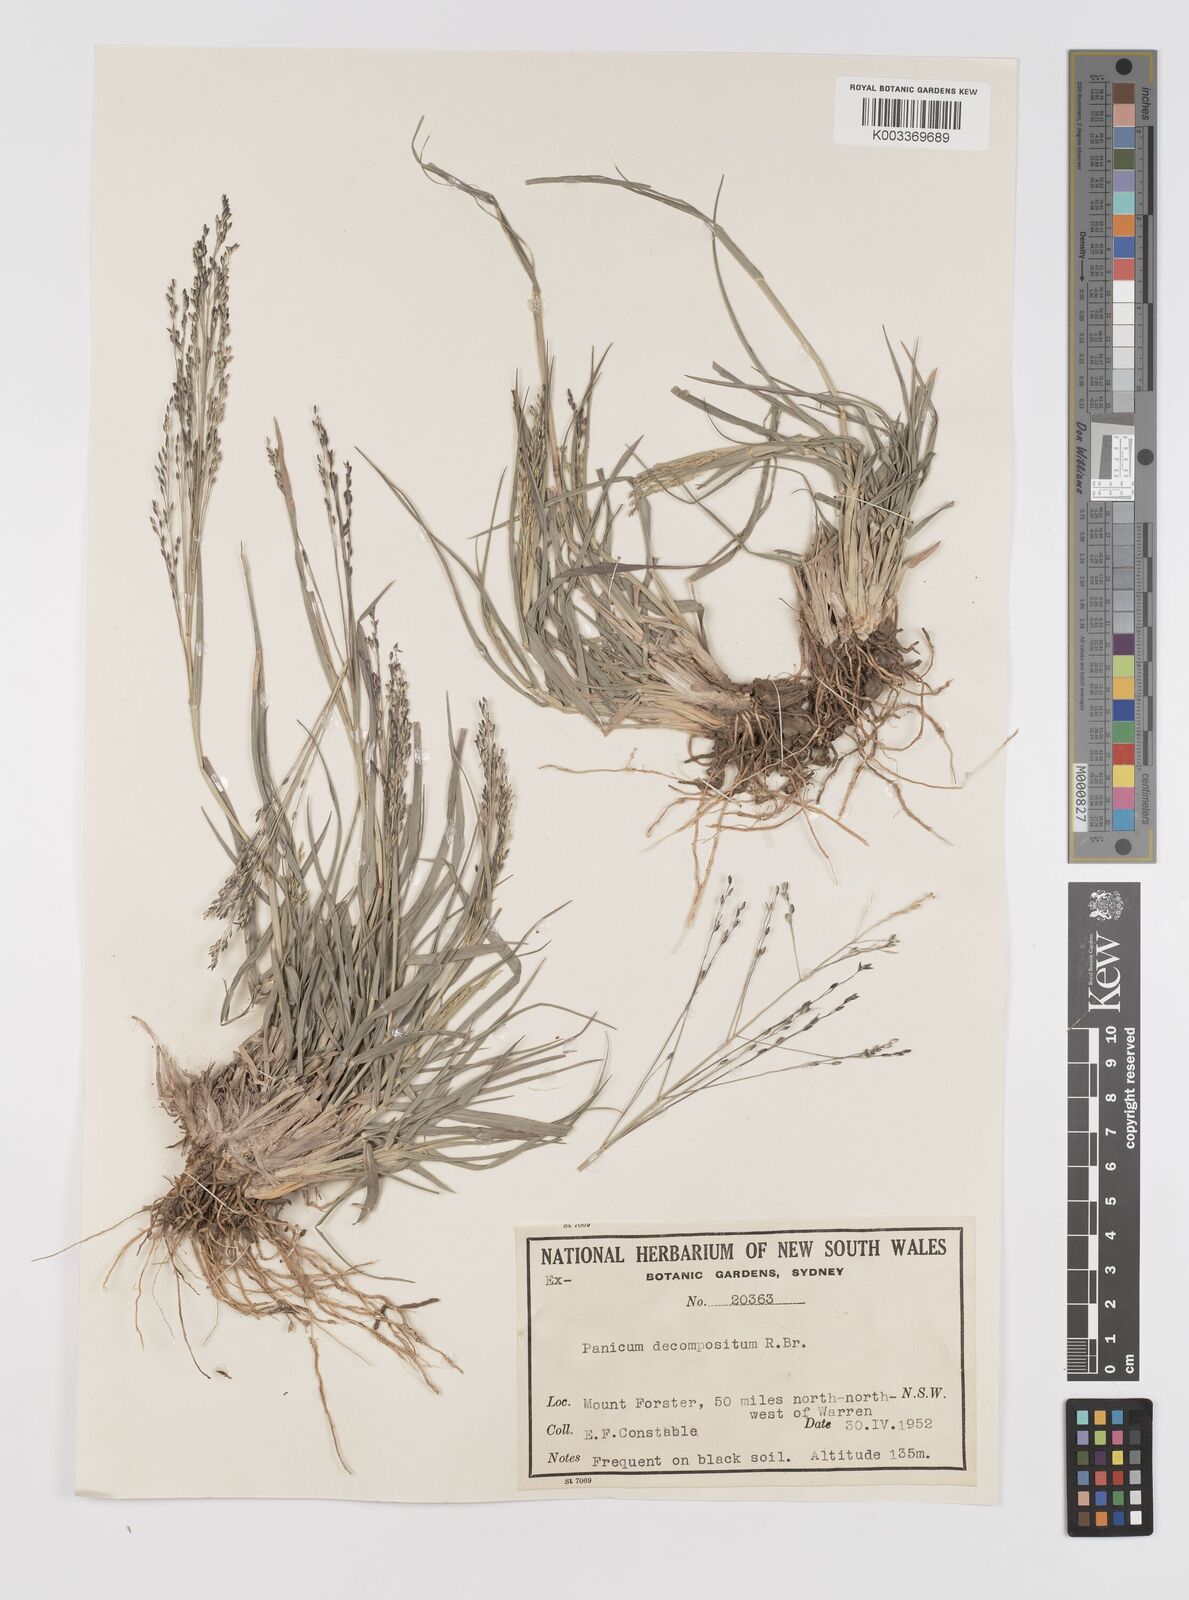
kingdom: Plantae
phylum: Tracheophyta
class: Liliopsida
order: Poales
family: Poaceae
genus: Panicum
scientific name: Panicum decompositum
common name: Australian millet
